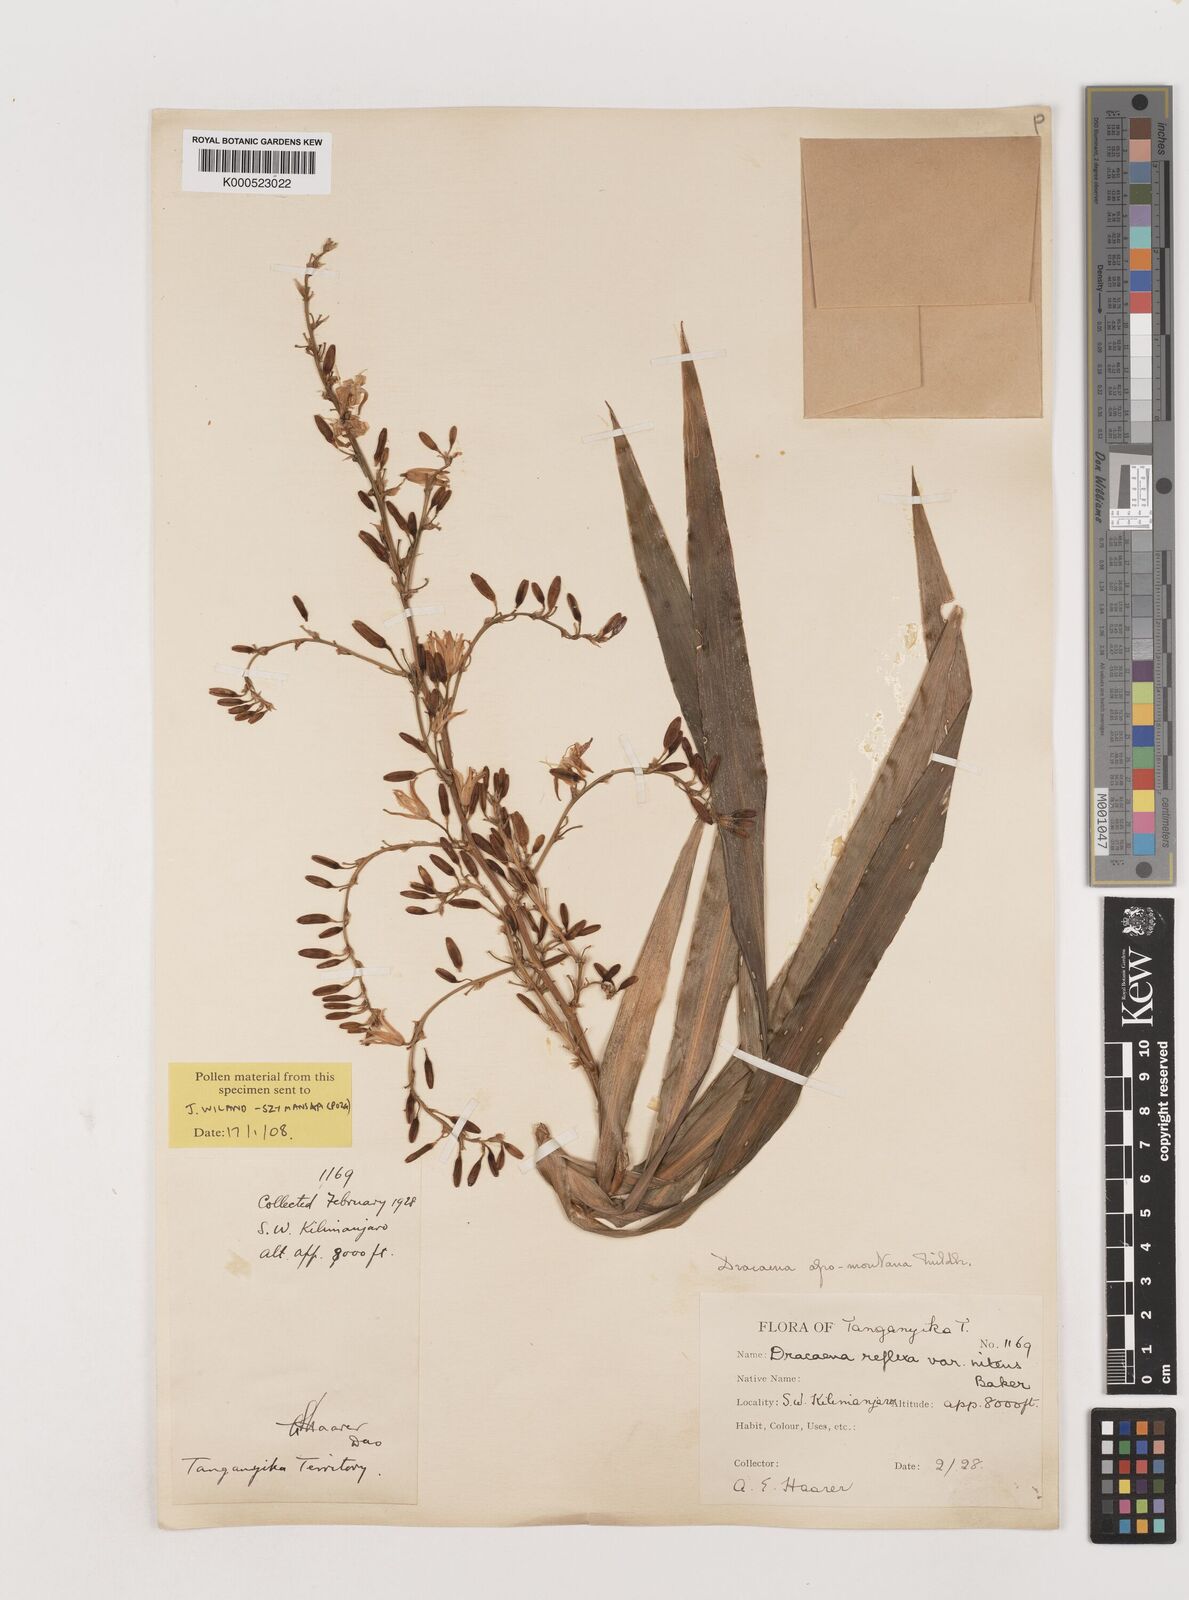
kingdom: Plantae
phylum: Tracheophyta
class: Liliopsida
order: Asparagales
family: Asparagaceae
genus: Dracaena
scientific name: Dracaena afromontana
